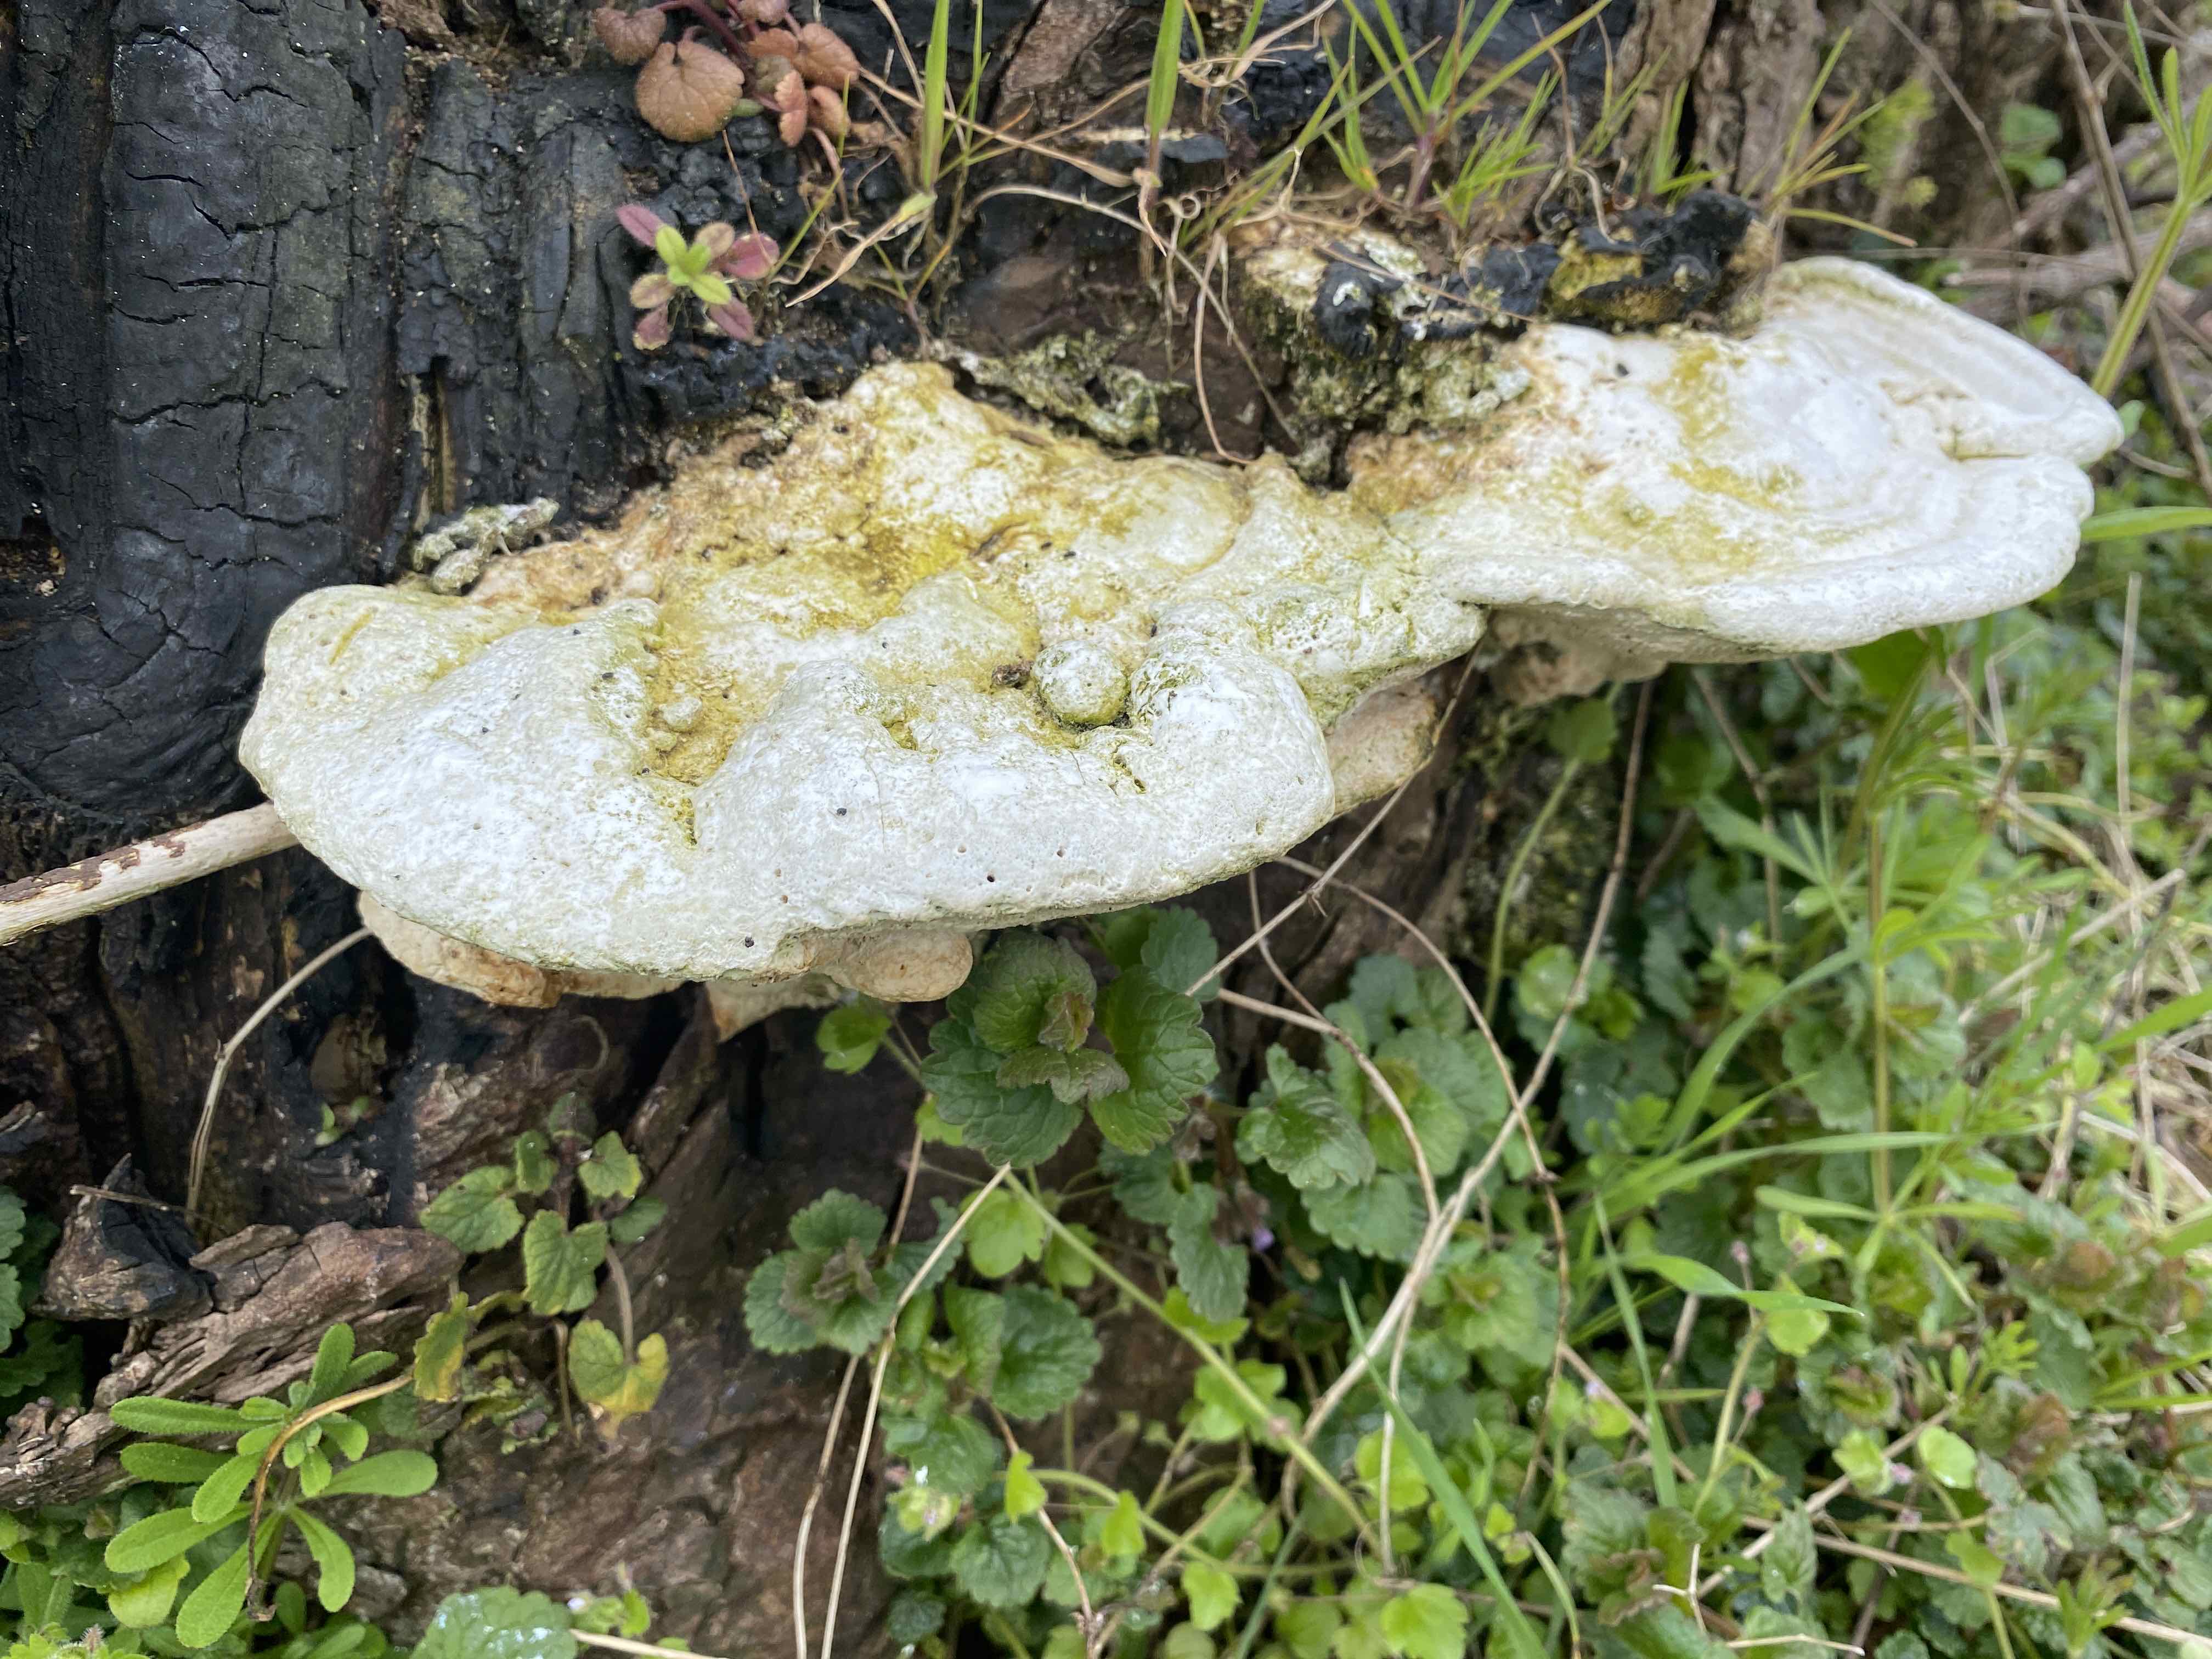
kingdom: Fungi
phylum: Basidiomycota
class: Agaricomycetes
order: Polyporales
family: Polyporaceae
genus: Trametes
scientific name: Trametes gibbosa
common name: puklet læderporesvamp
